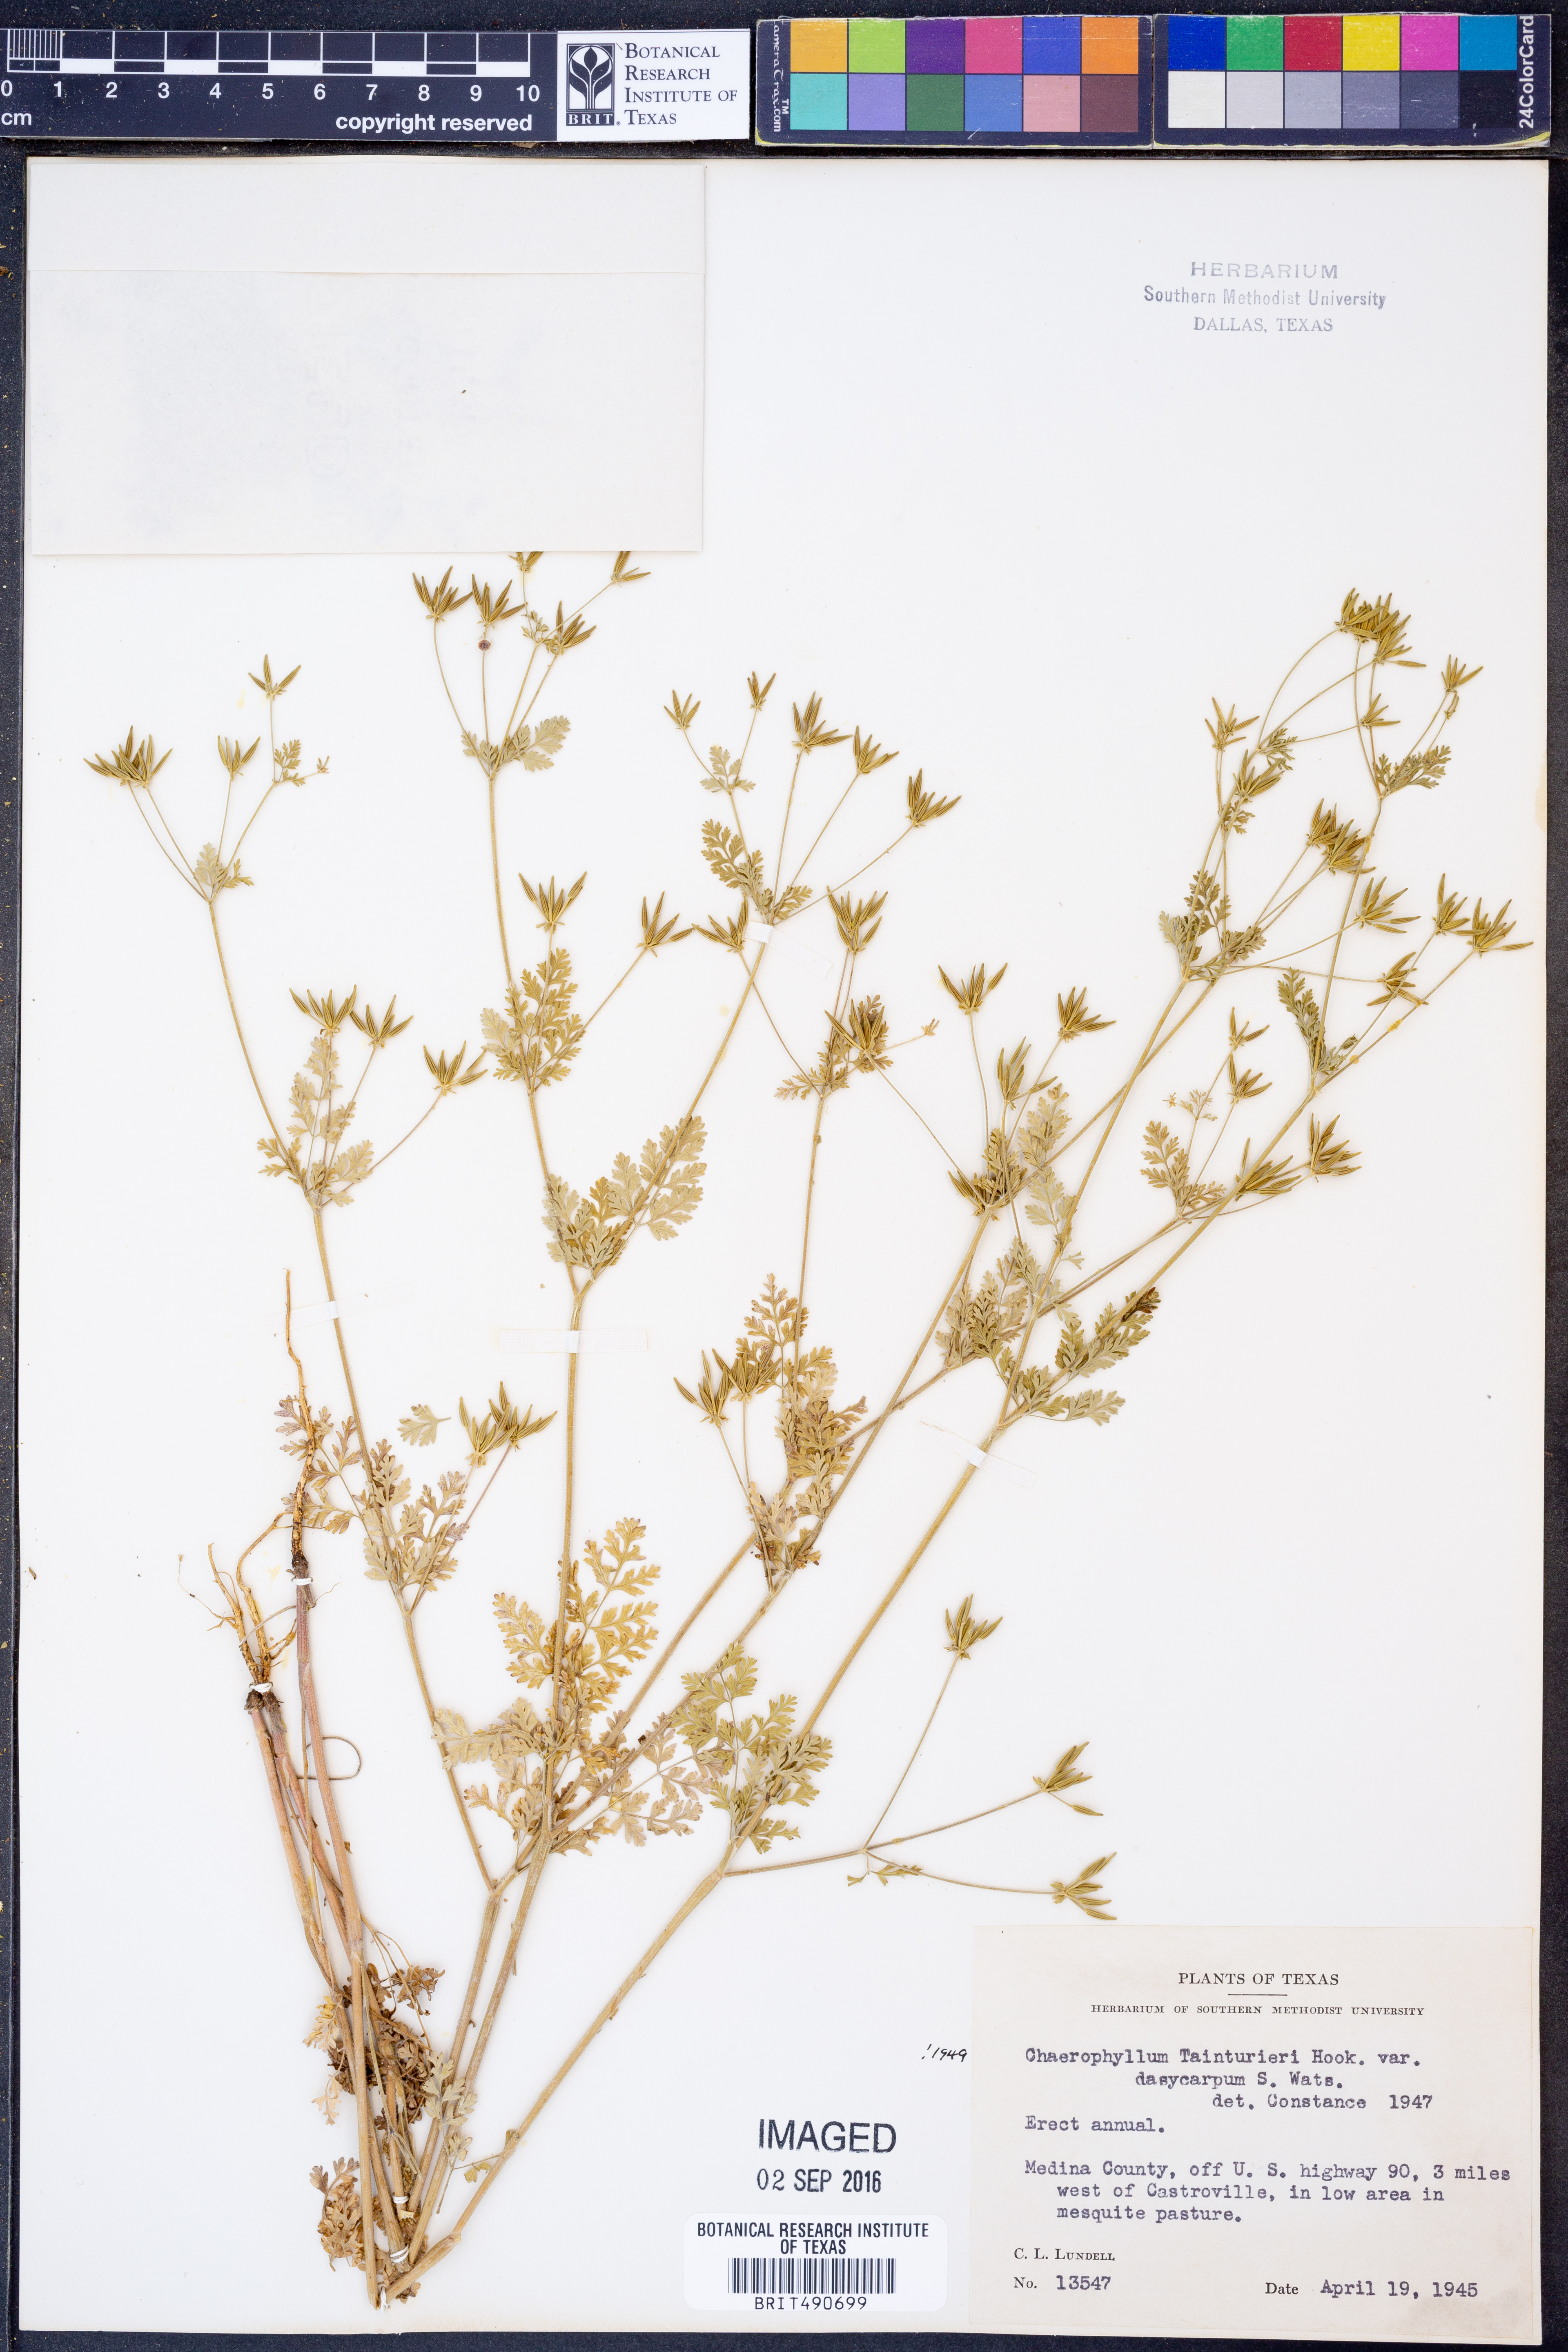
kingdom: Plantae
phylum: Tracheophyta
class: Magnoliopsida
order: Apiales
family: Apiaceae
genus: Chaerophyllum
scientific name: Chaerophyllum dasycarpum
